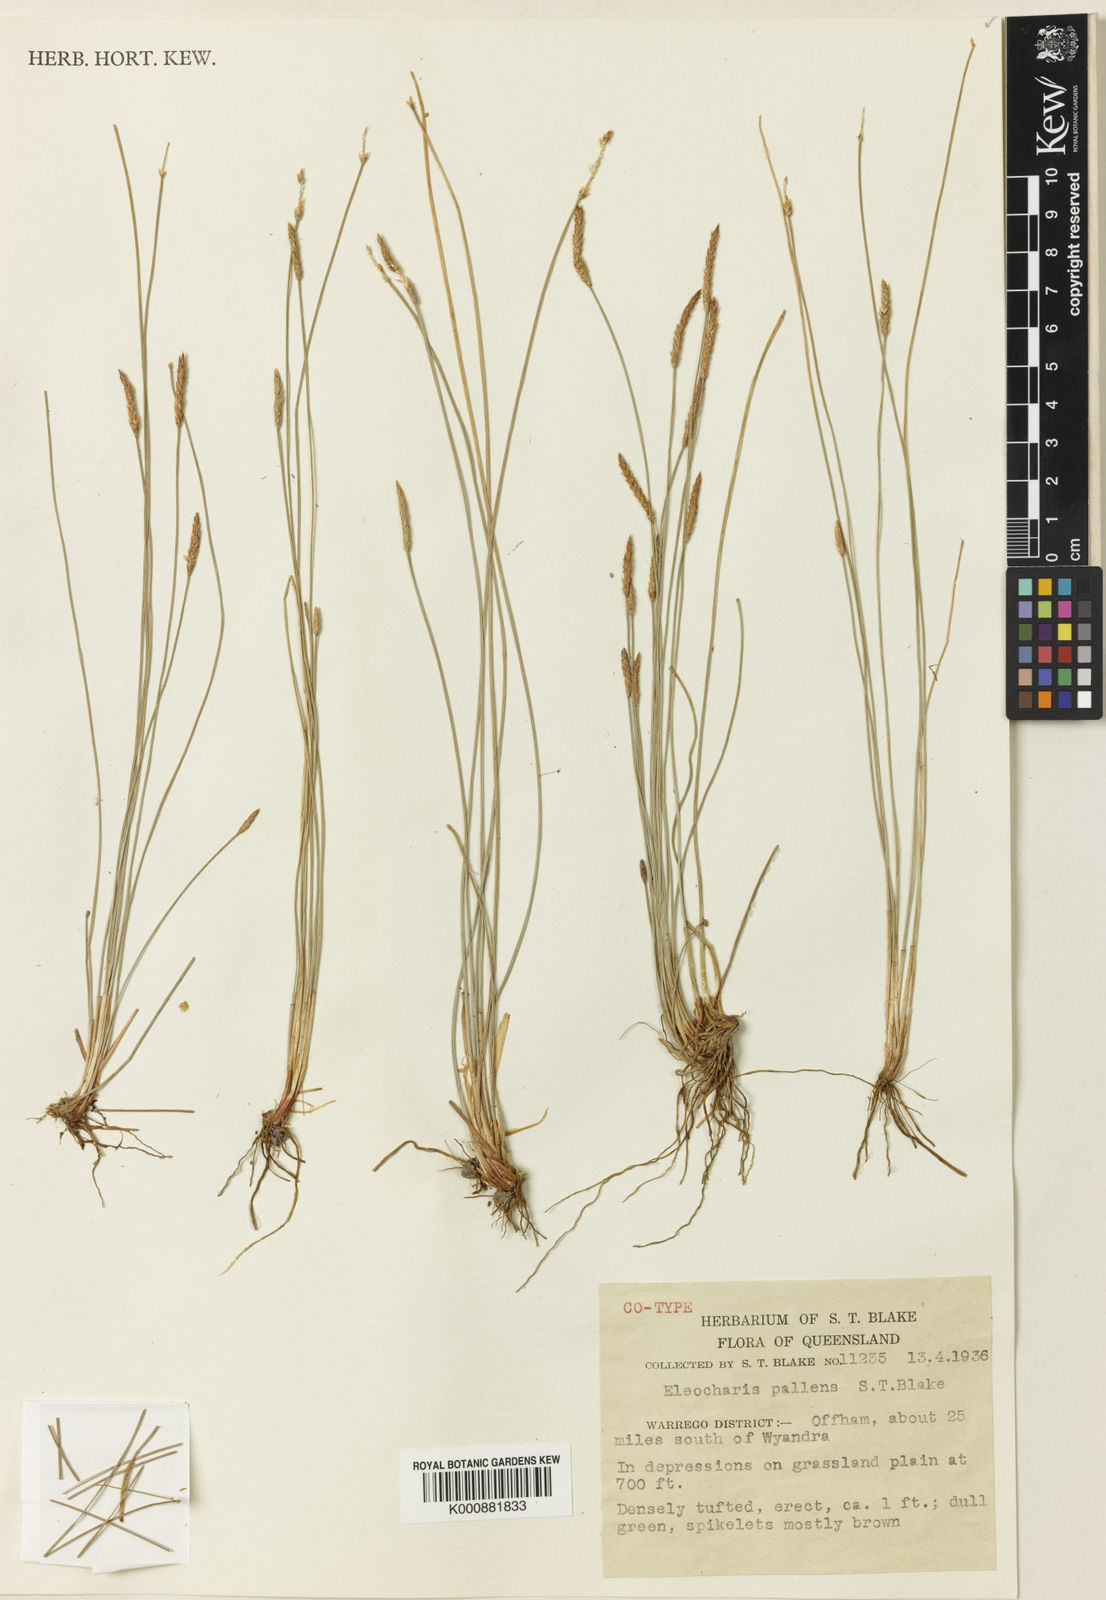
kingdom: Plantae
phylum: Tracheophyta
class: Liliopsida
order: Poales
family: Cyperaceae
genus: Eleocharis
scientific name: Eleocharis acuta
